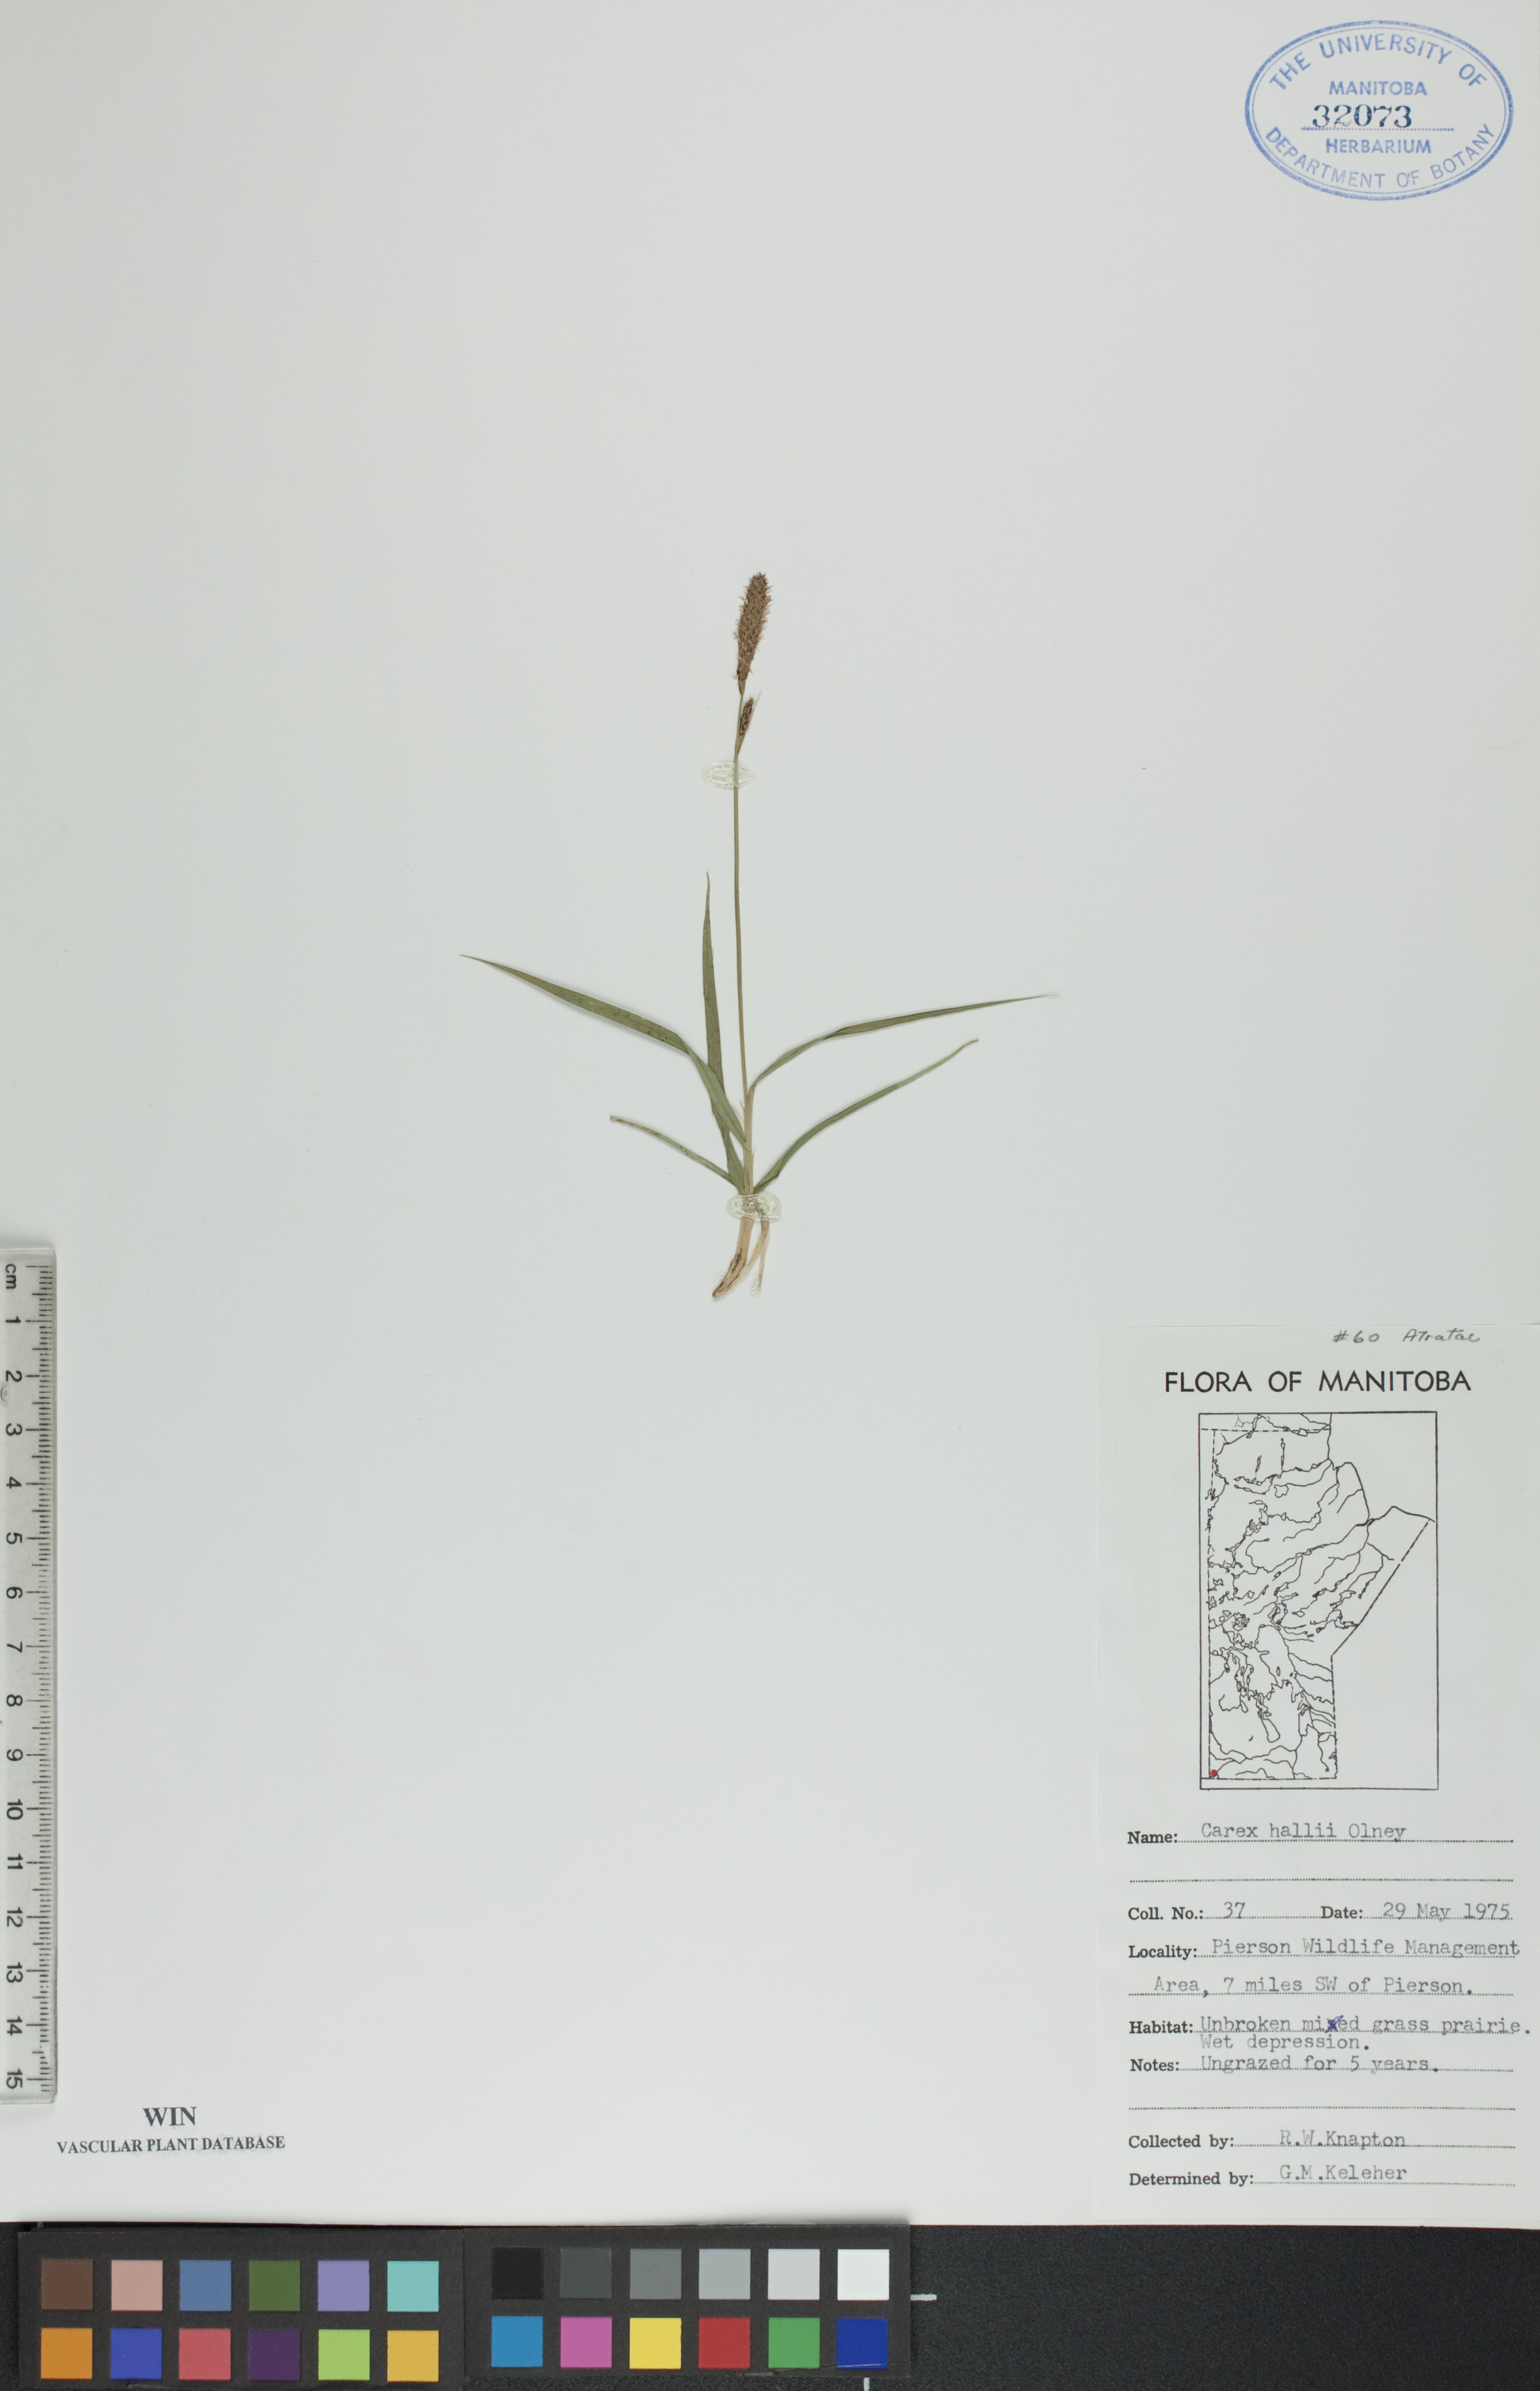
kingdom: Plantae
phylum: Tracheophyta
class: Liliopsida
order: Poales
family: Cyperaceae
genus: Carex
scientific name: Carex hallii
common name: Deer sedge
